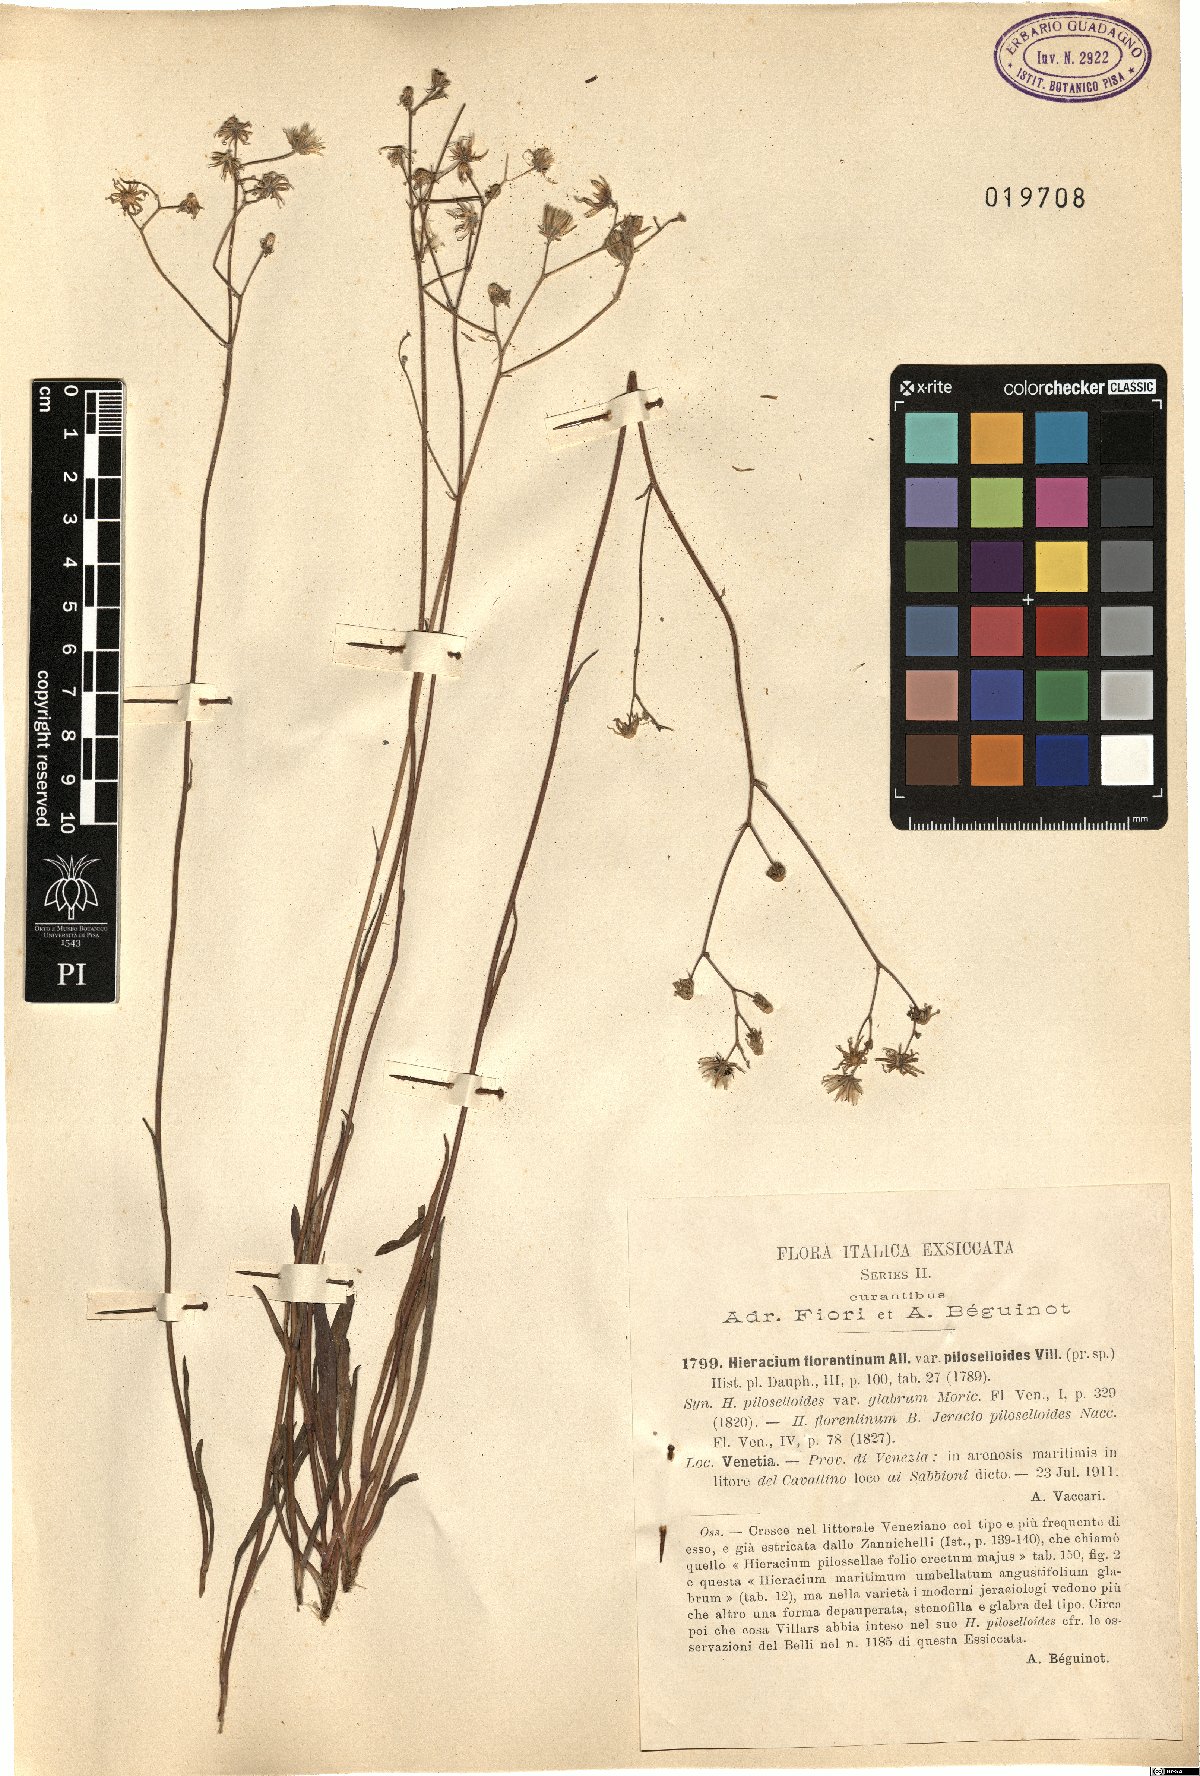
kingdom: Plantae
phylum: Tracheophyta
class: Magnoliopsida
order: Asterales
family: Asteraceae
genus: Pilosella
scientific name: Pilosella piloselloides
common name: Glaucous king-devil
